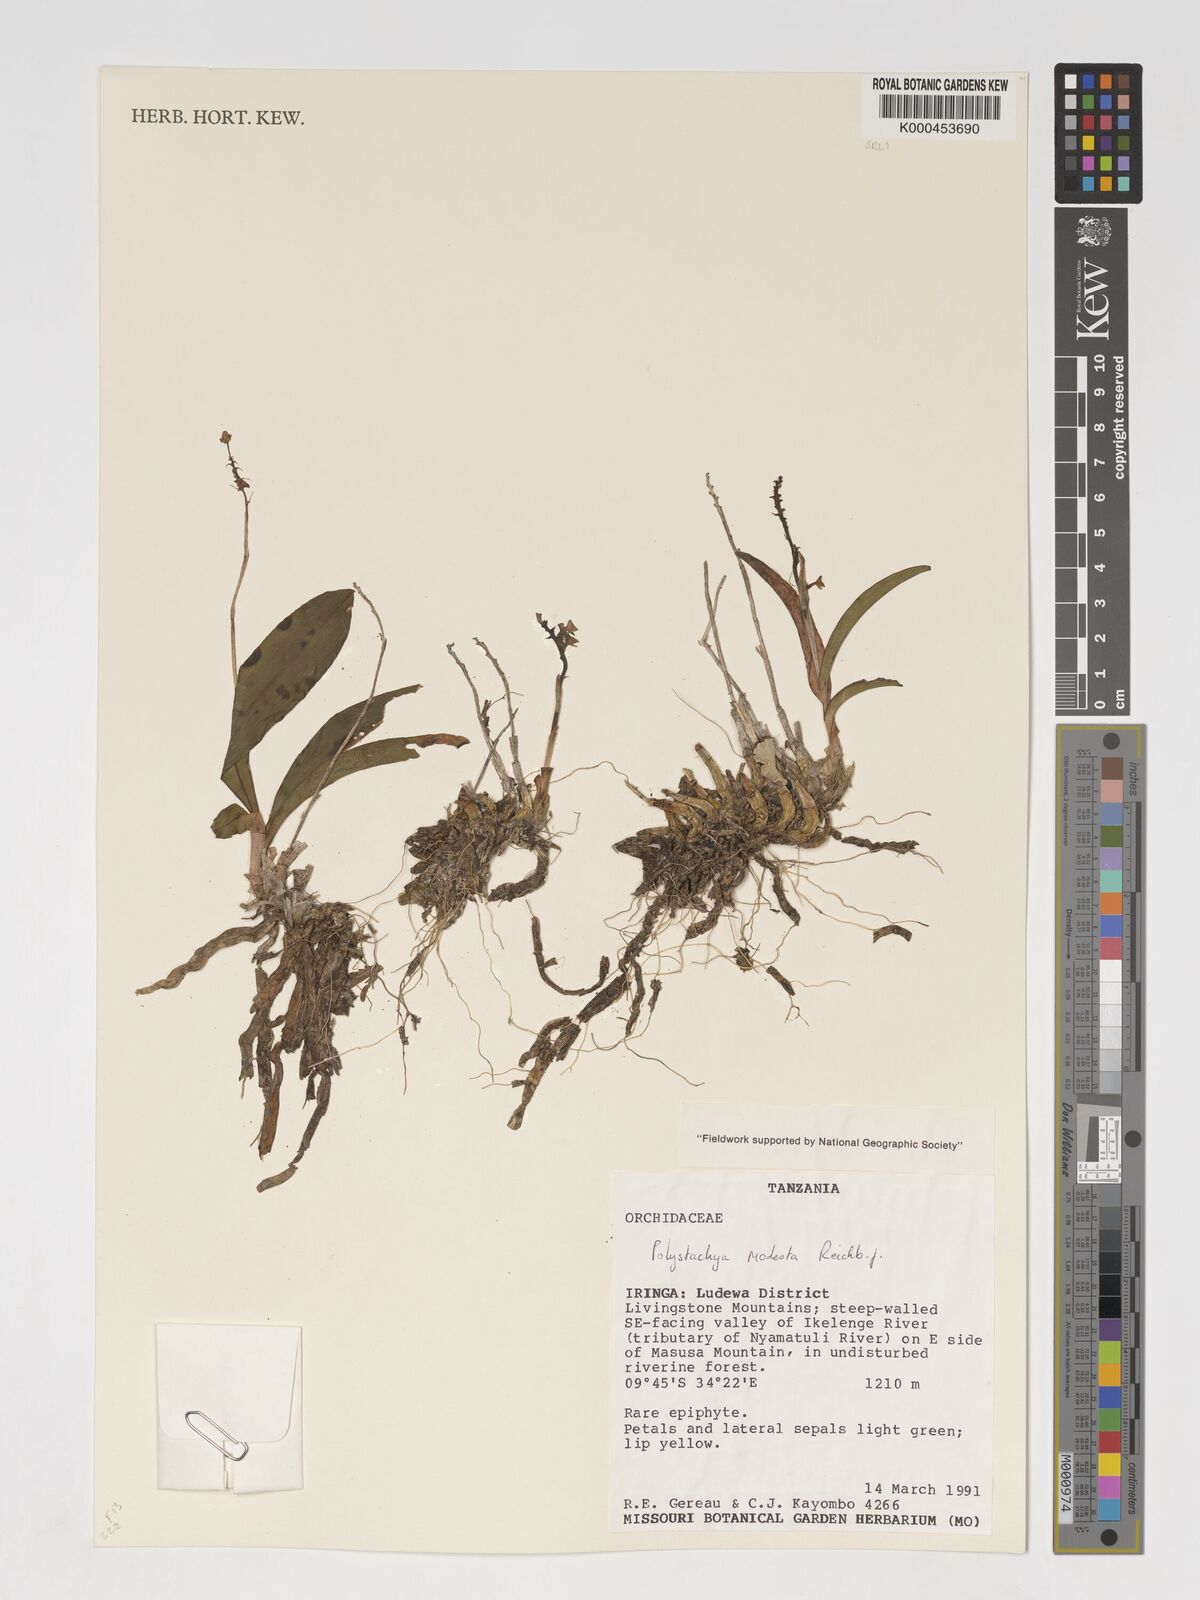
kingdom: Plantae
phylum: Tracheophyta
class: Liliopsida
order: Asparagales
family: Orchidaceae
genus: Polystachya
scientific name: Polystachya modesta
